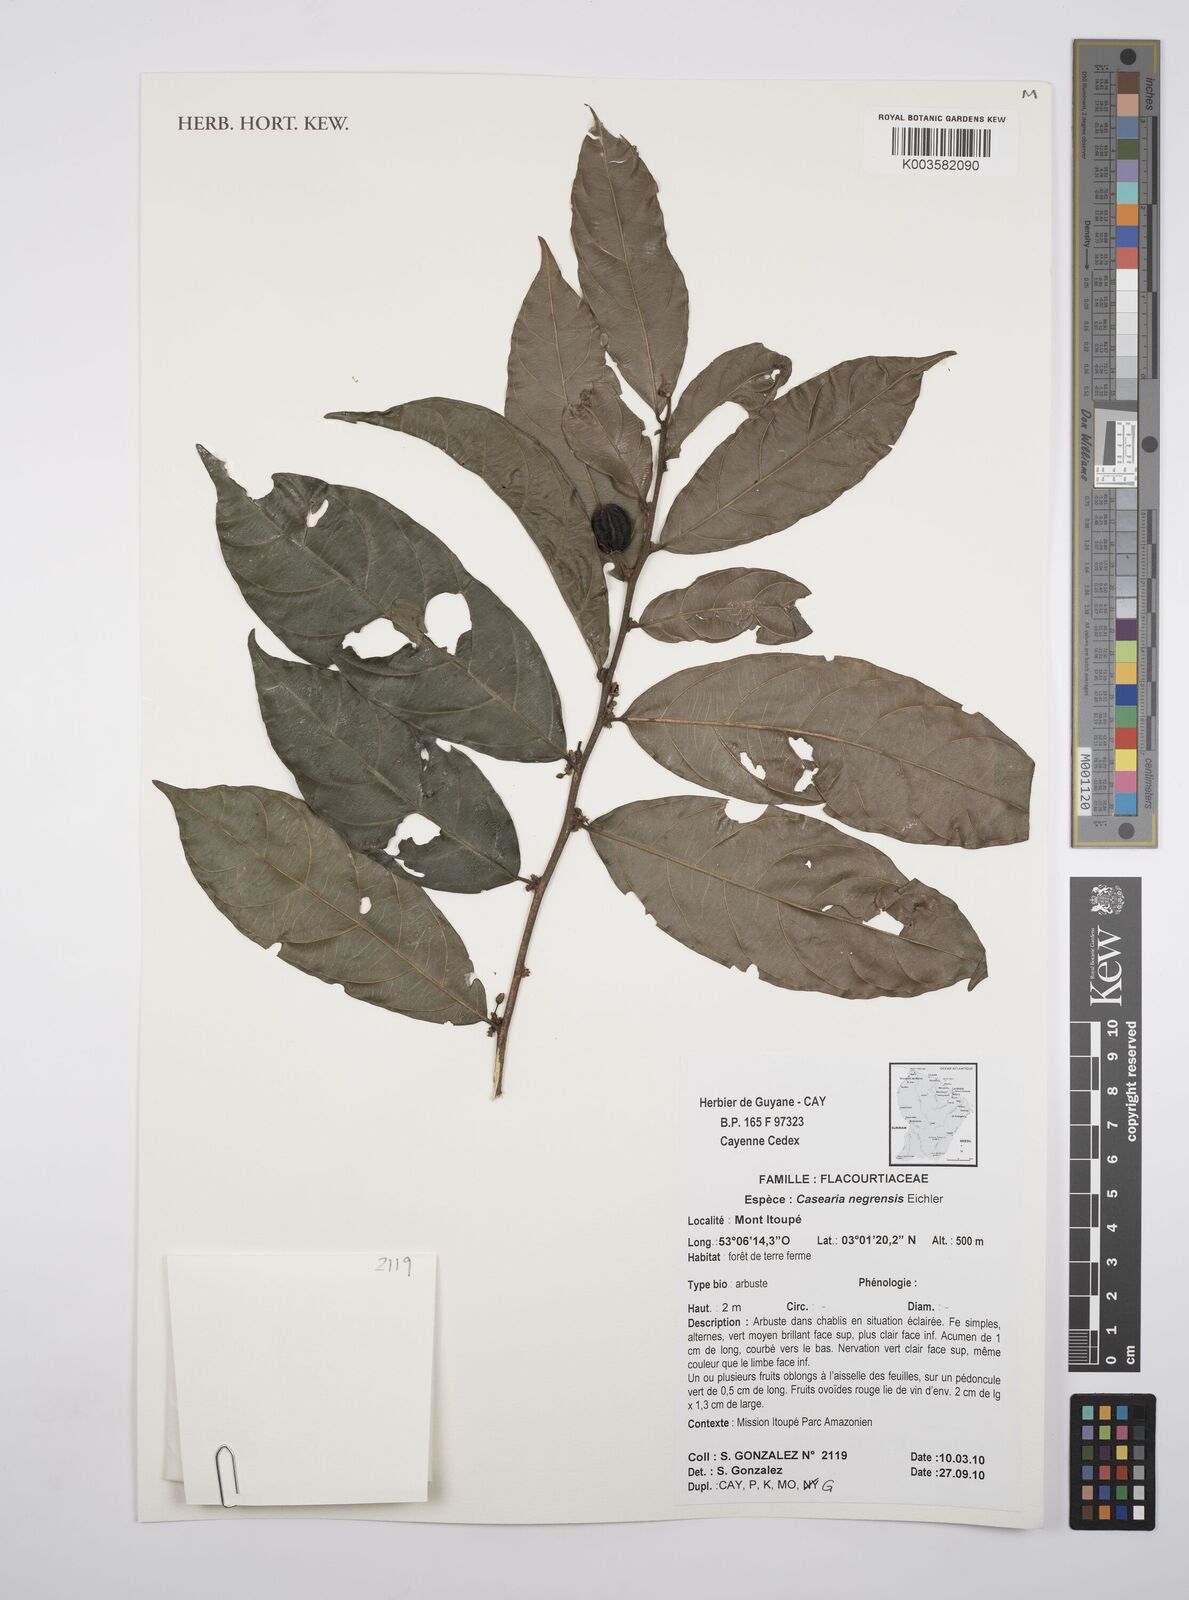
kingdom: Plantae
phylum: Tracheophyta
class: Magnoliopsida
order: Malpighiales
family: Salicaceae
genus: Casearia
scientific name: Casearia negrensis
